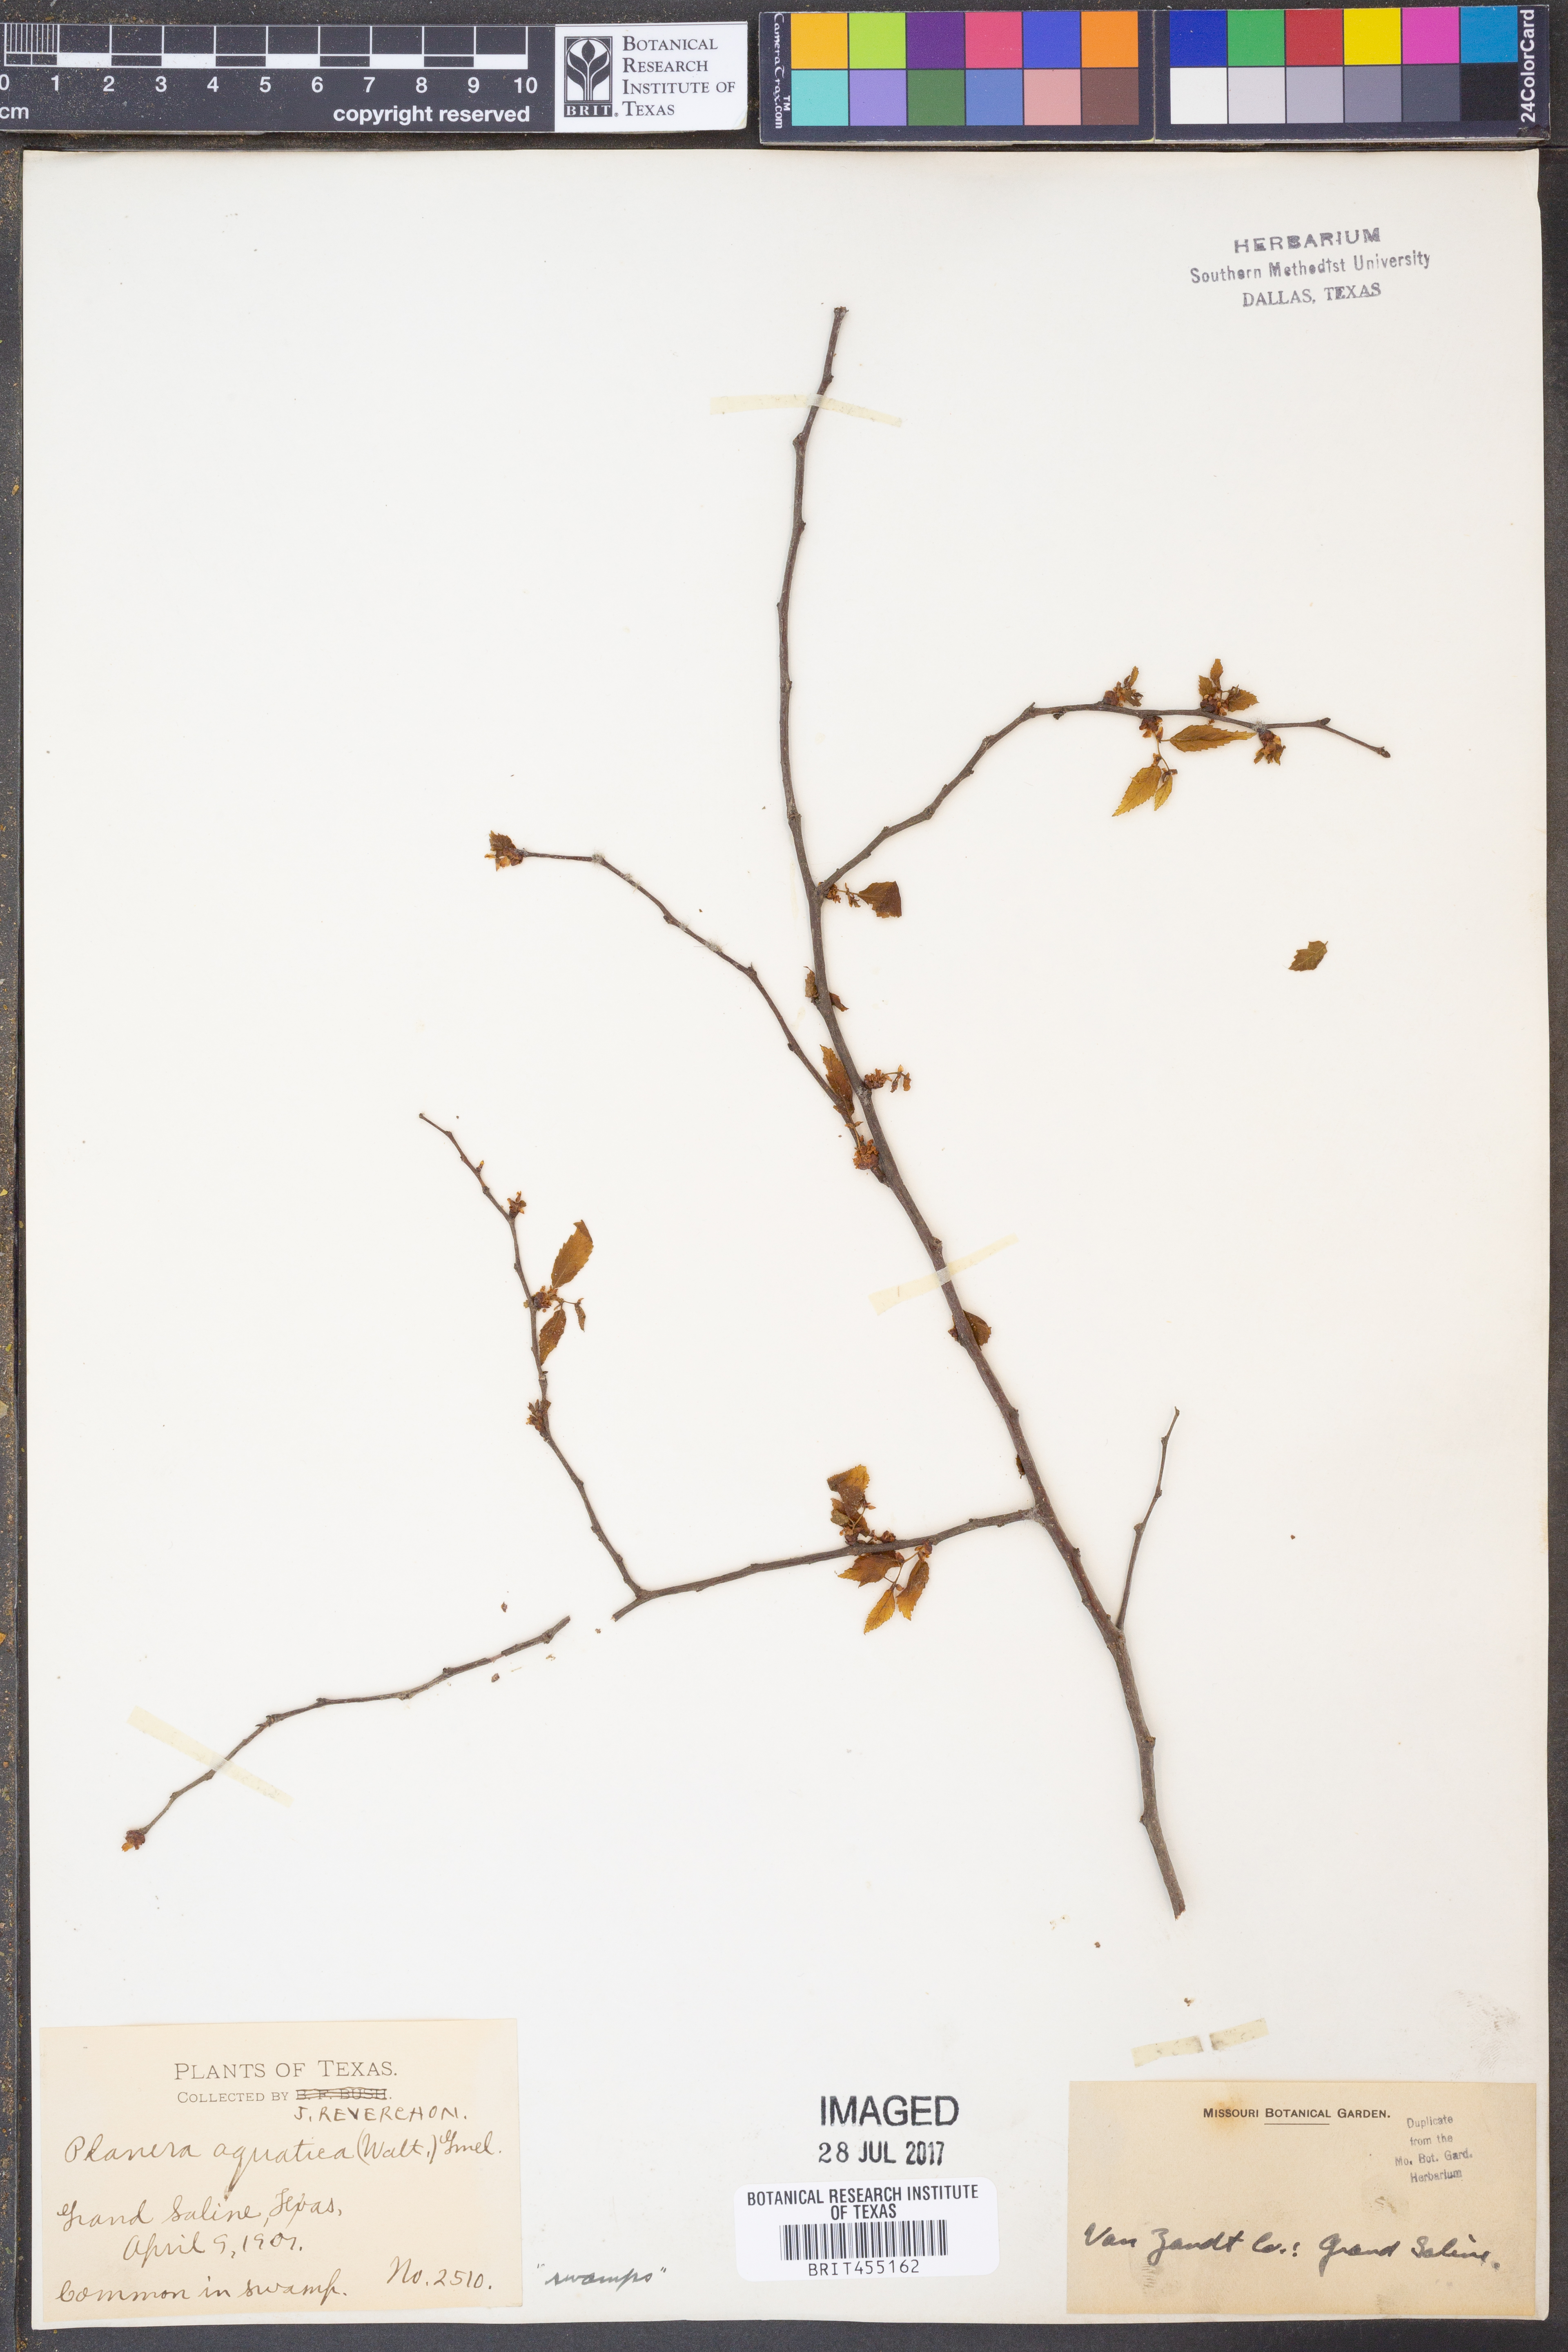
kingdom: Plantae
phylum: Tracheophyta
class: Magnoliopsida
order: Rosales
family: Ulmaceae
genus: Planera
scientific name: Planera aquatica
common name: Water-elm
